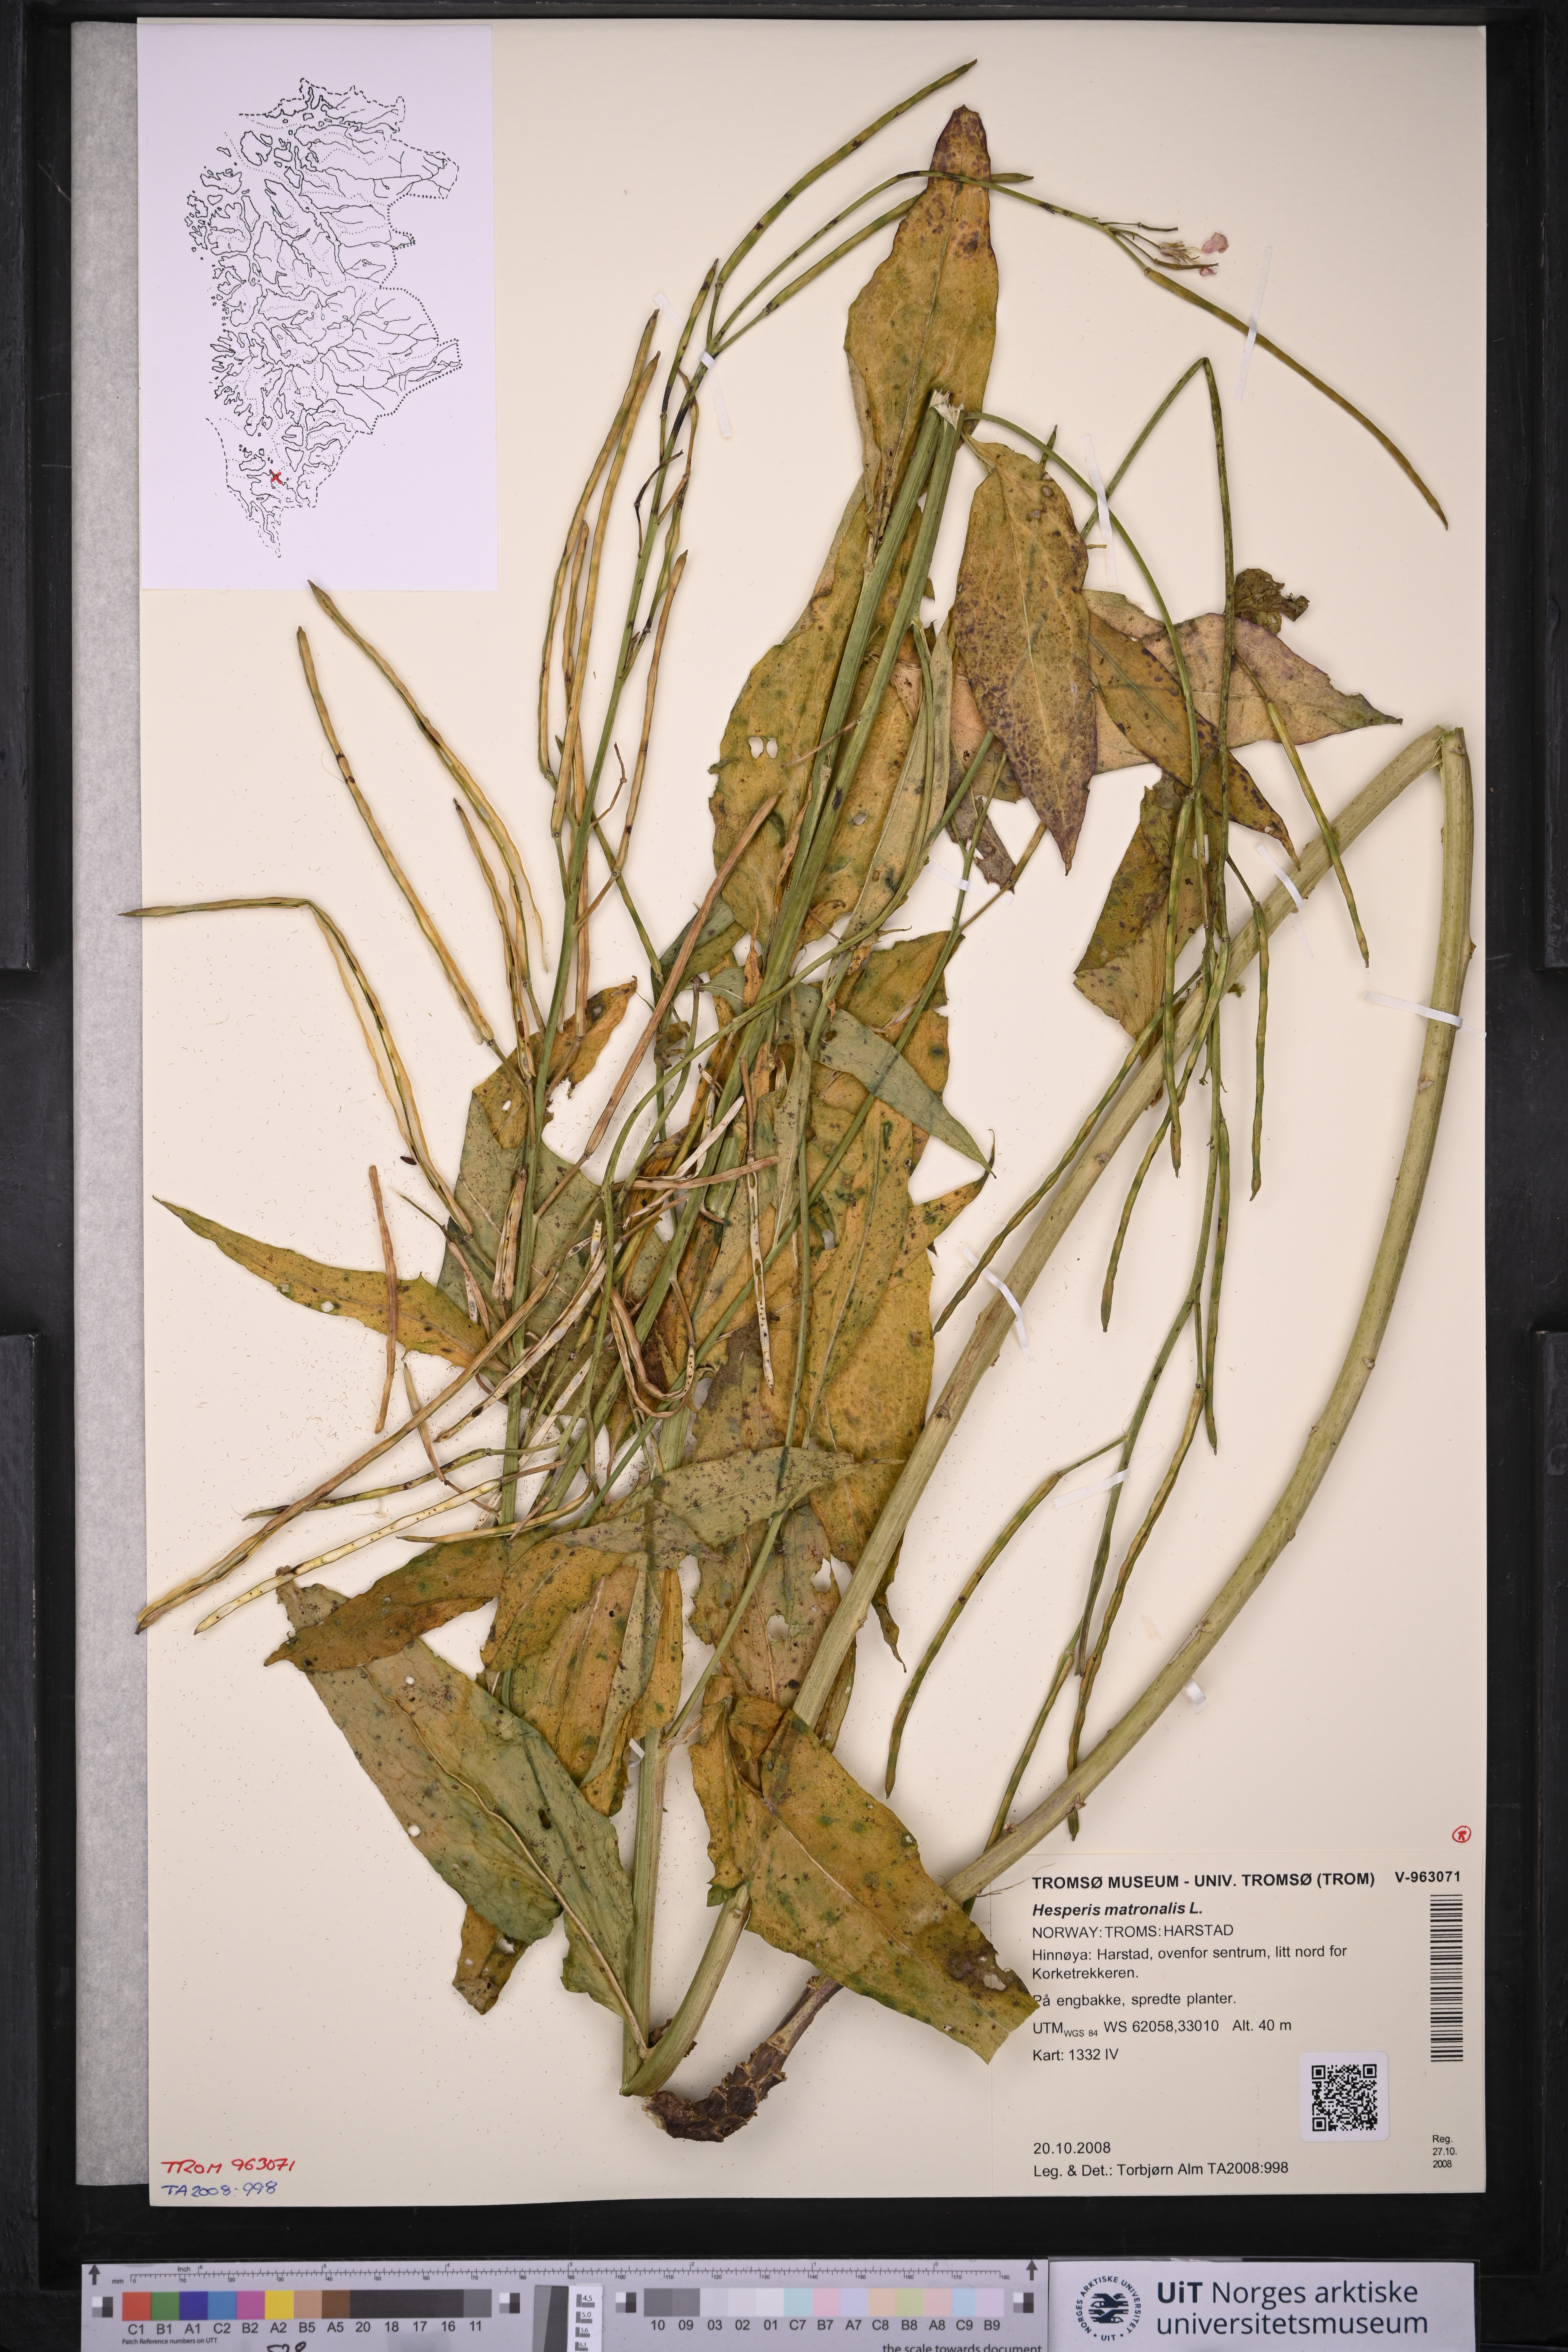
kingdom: Plantae
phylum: Tracheophyta
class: Magnoliopsida
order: Brassicales
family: Brassicaceae
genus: Hesperis
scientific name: Hesperis matronalis
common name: Dame's-violet
